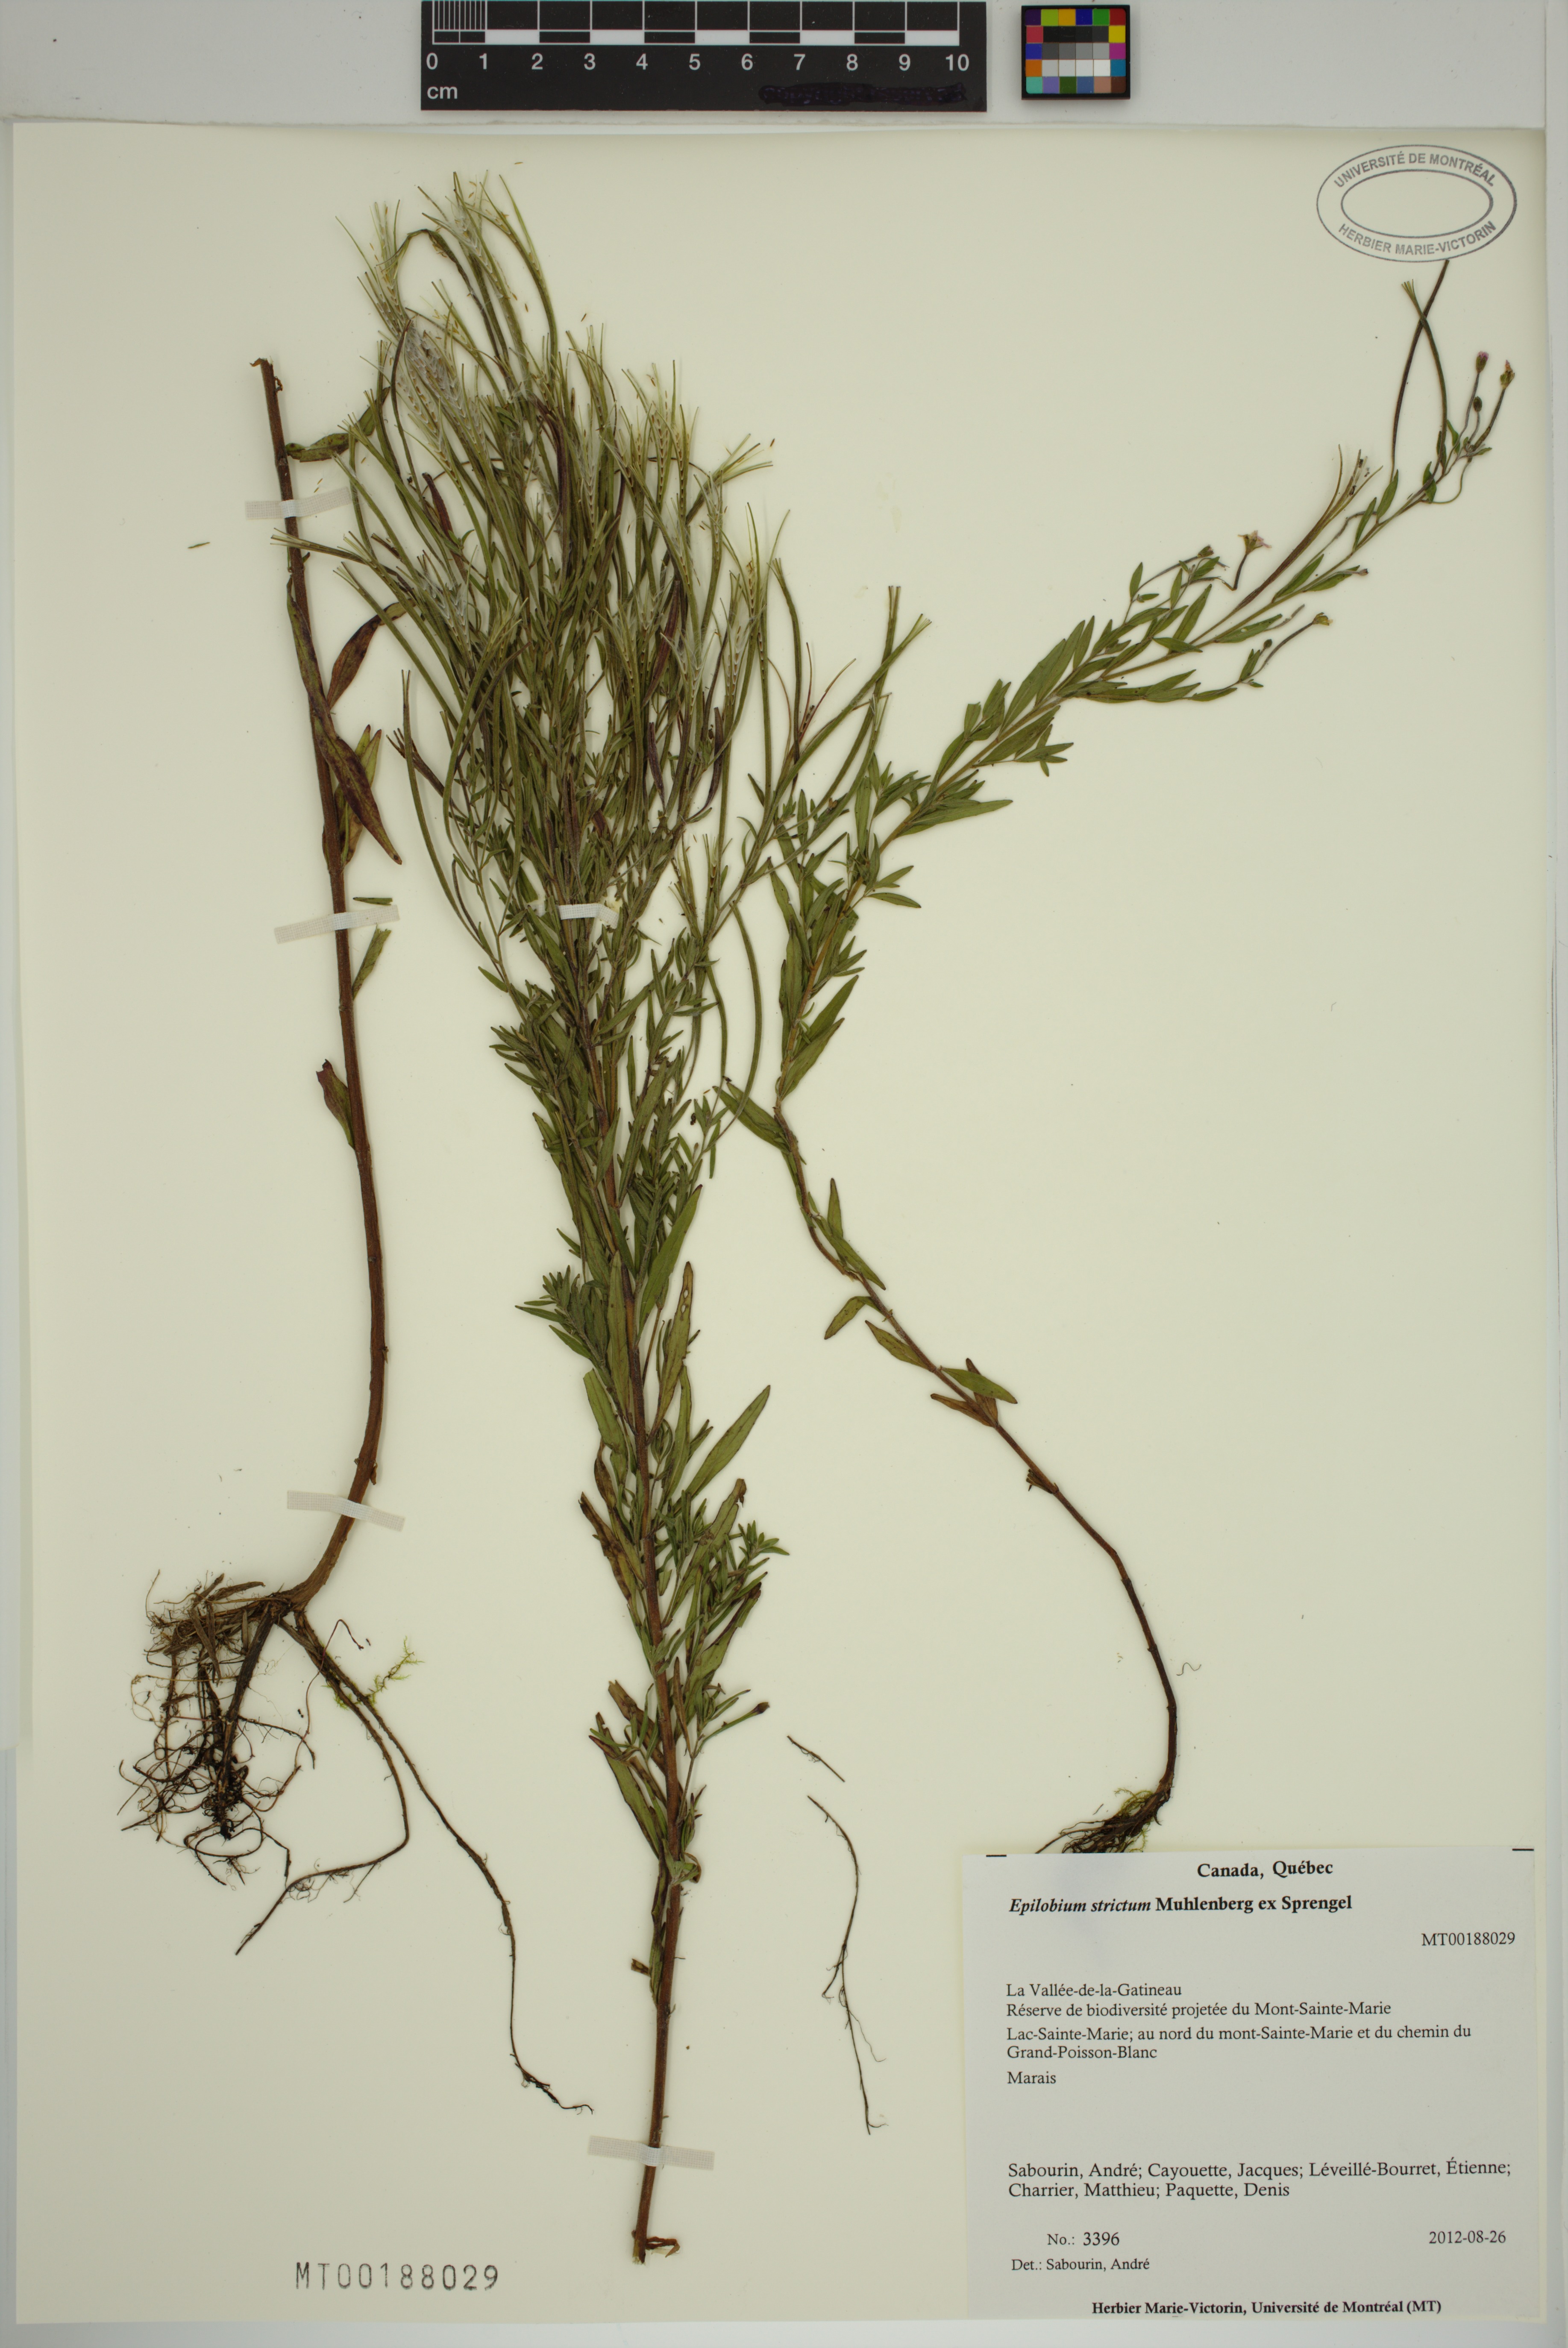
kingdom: Plantae
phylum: Tracheophyta
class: Magnoliopsida
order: Myrtales
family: Onagraceae
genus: Epilobium
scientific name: Epilobium densum
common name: Downy willowherb
